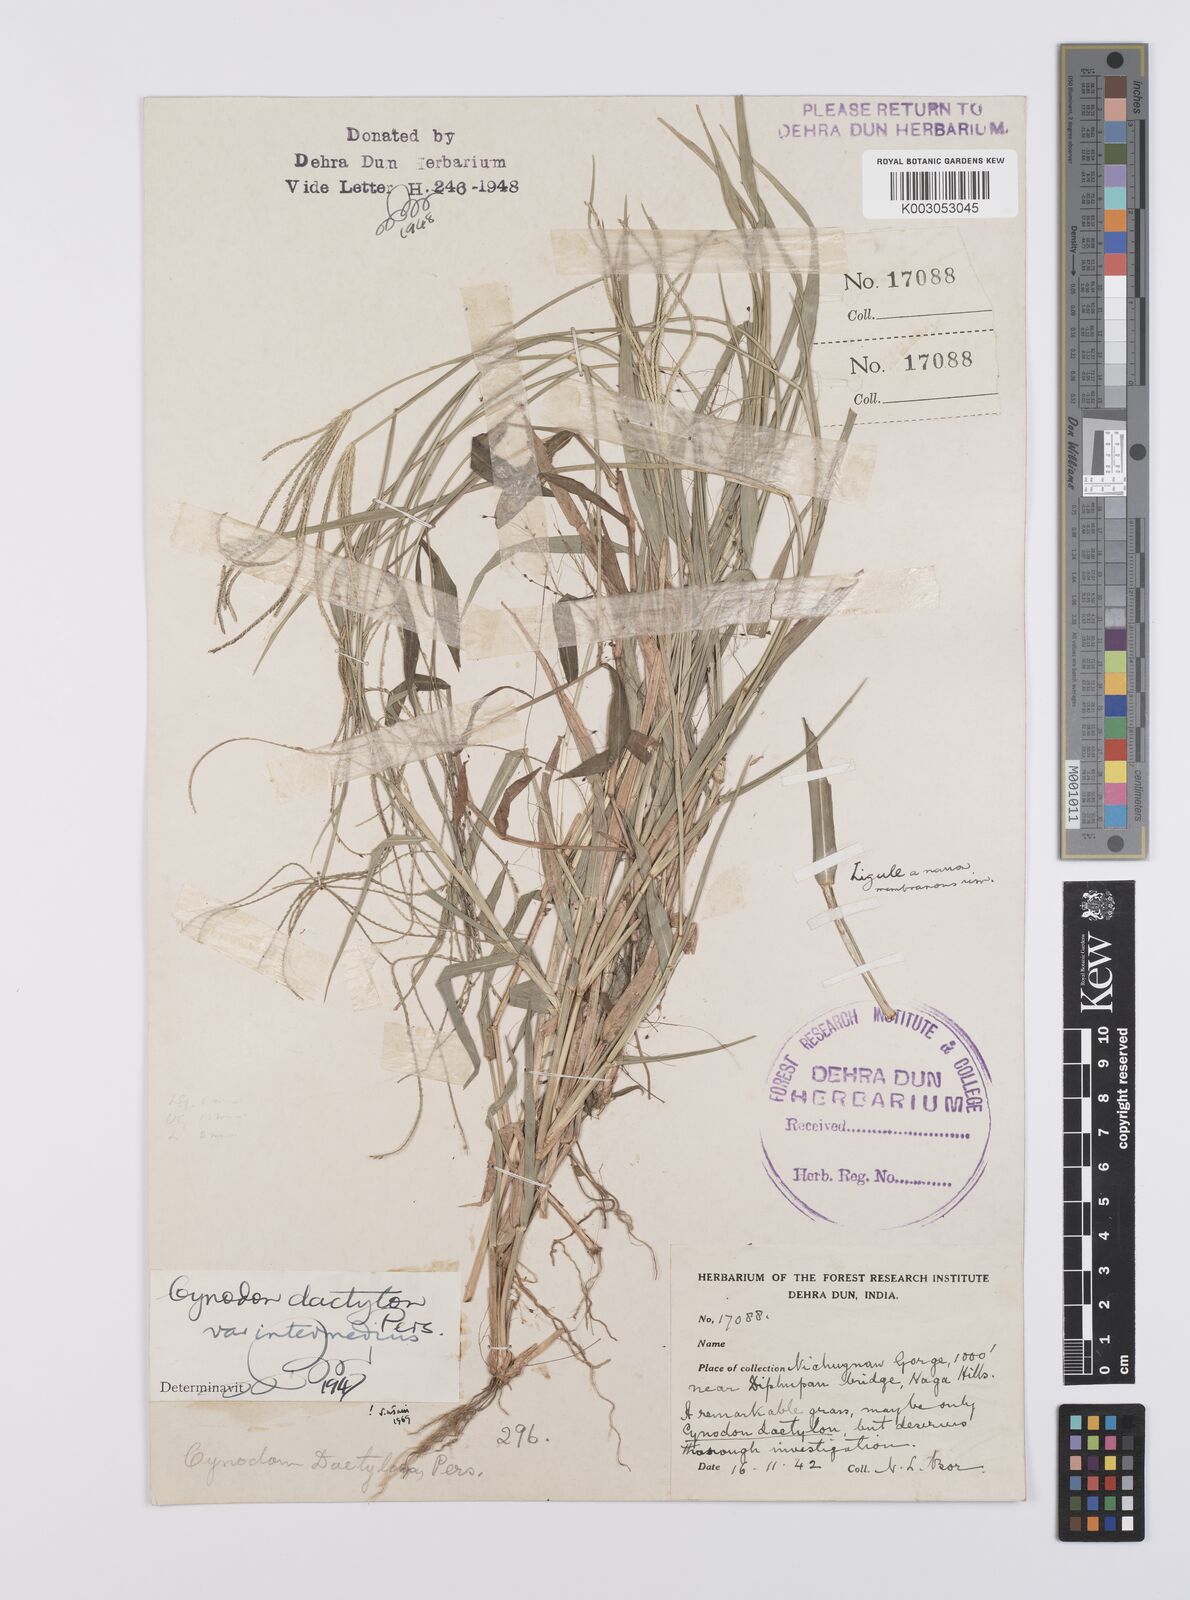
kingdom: Plantae
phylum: Tracheophyta
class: Liliopsida
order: Poales
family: Poaceae
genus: Cynodon
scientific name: Cynodon radiatus
